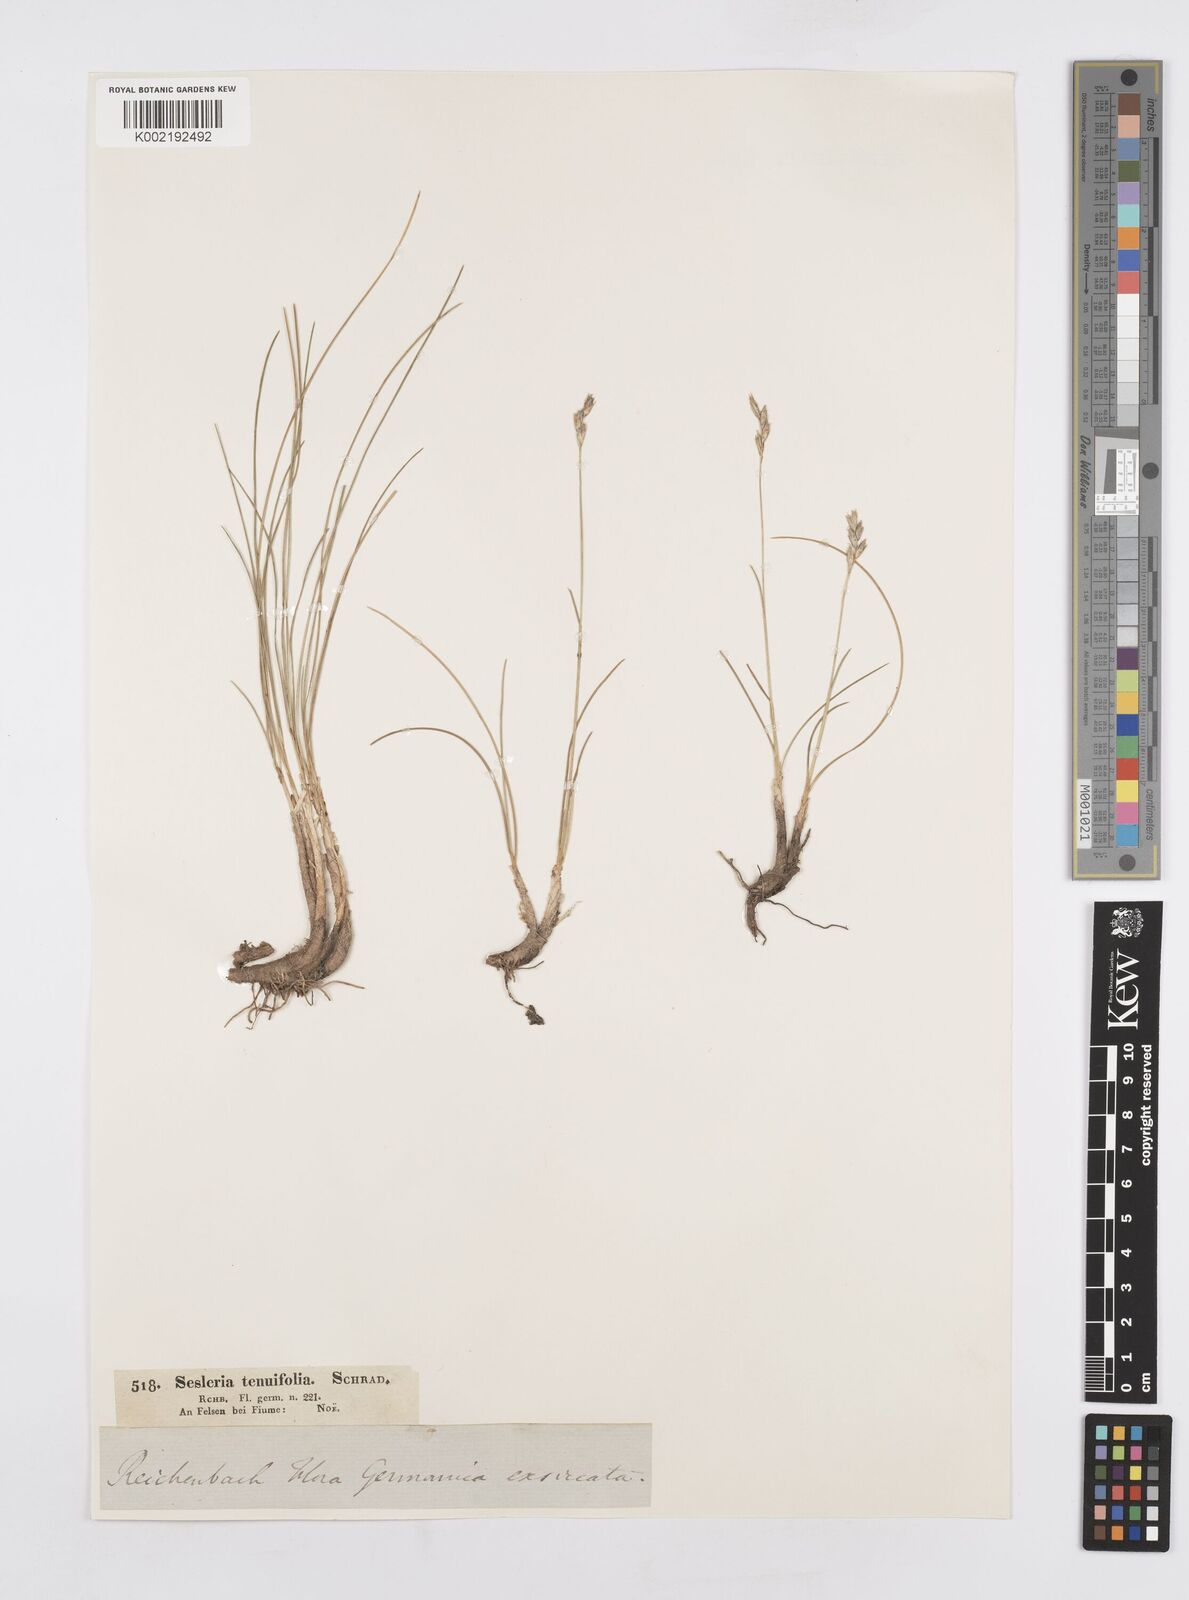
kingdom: Plantae
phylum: Tracheophyta
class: Liliopsida
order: Poales
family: Poaceae
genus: Sesleria
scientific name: Sesleria juncifolia
